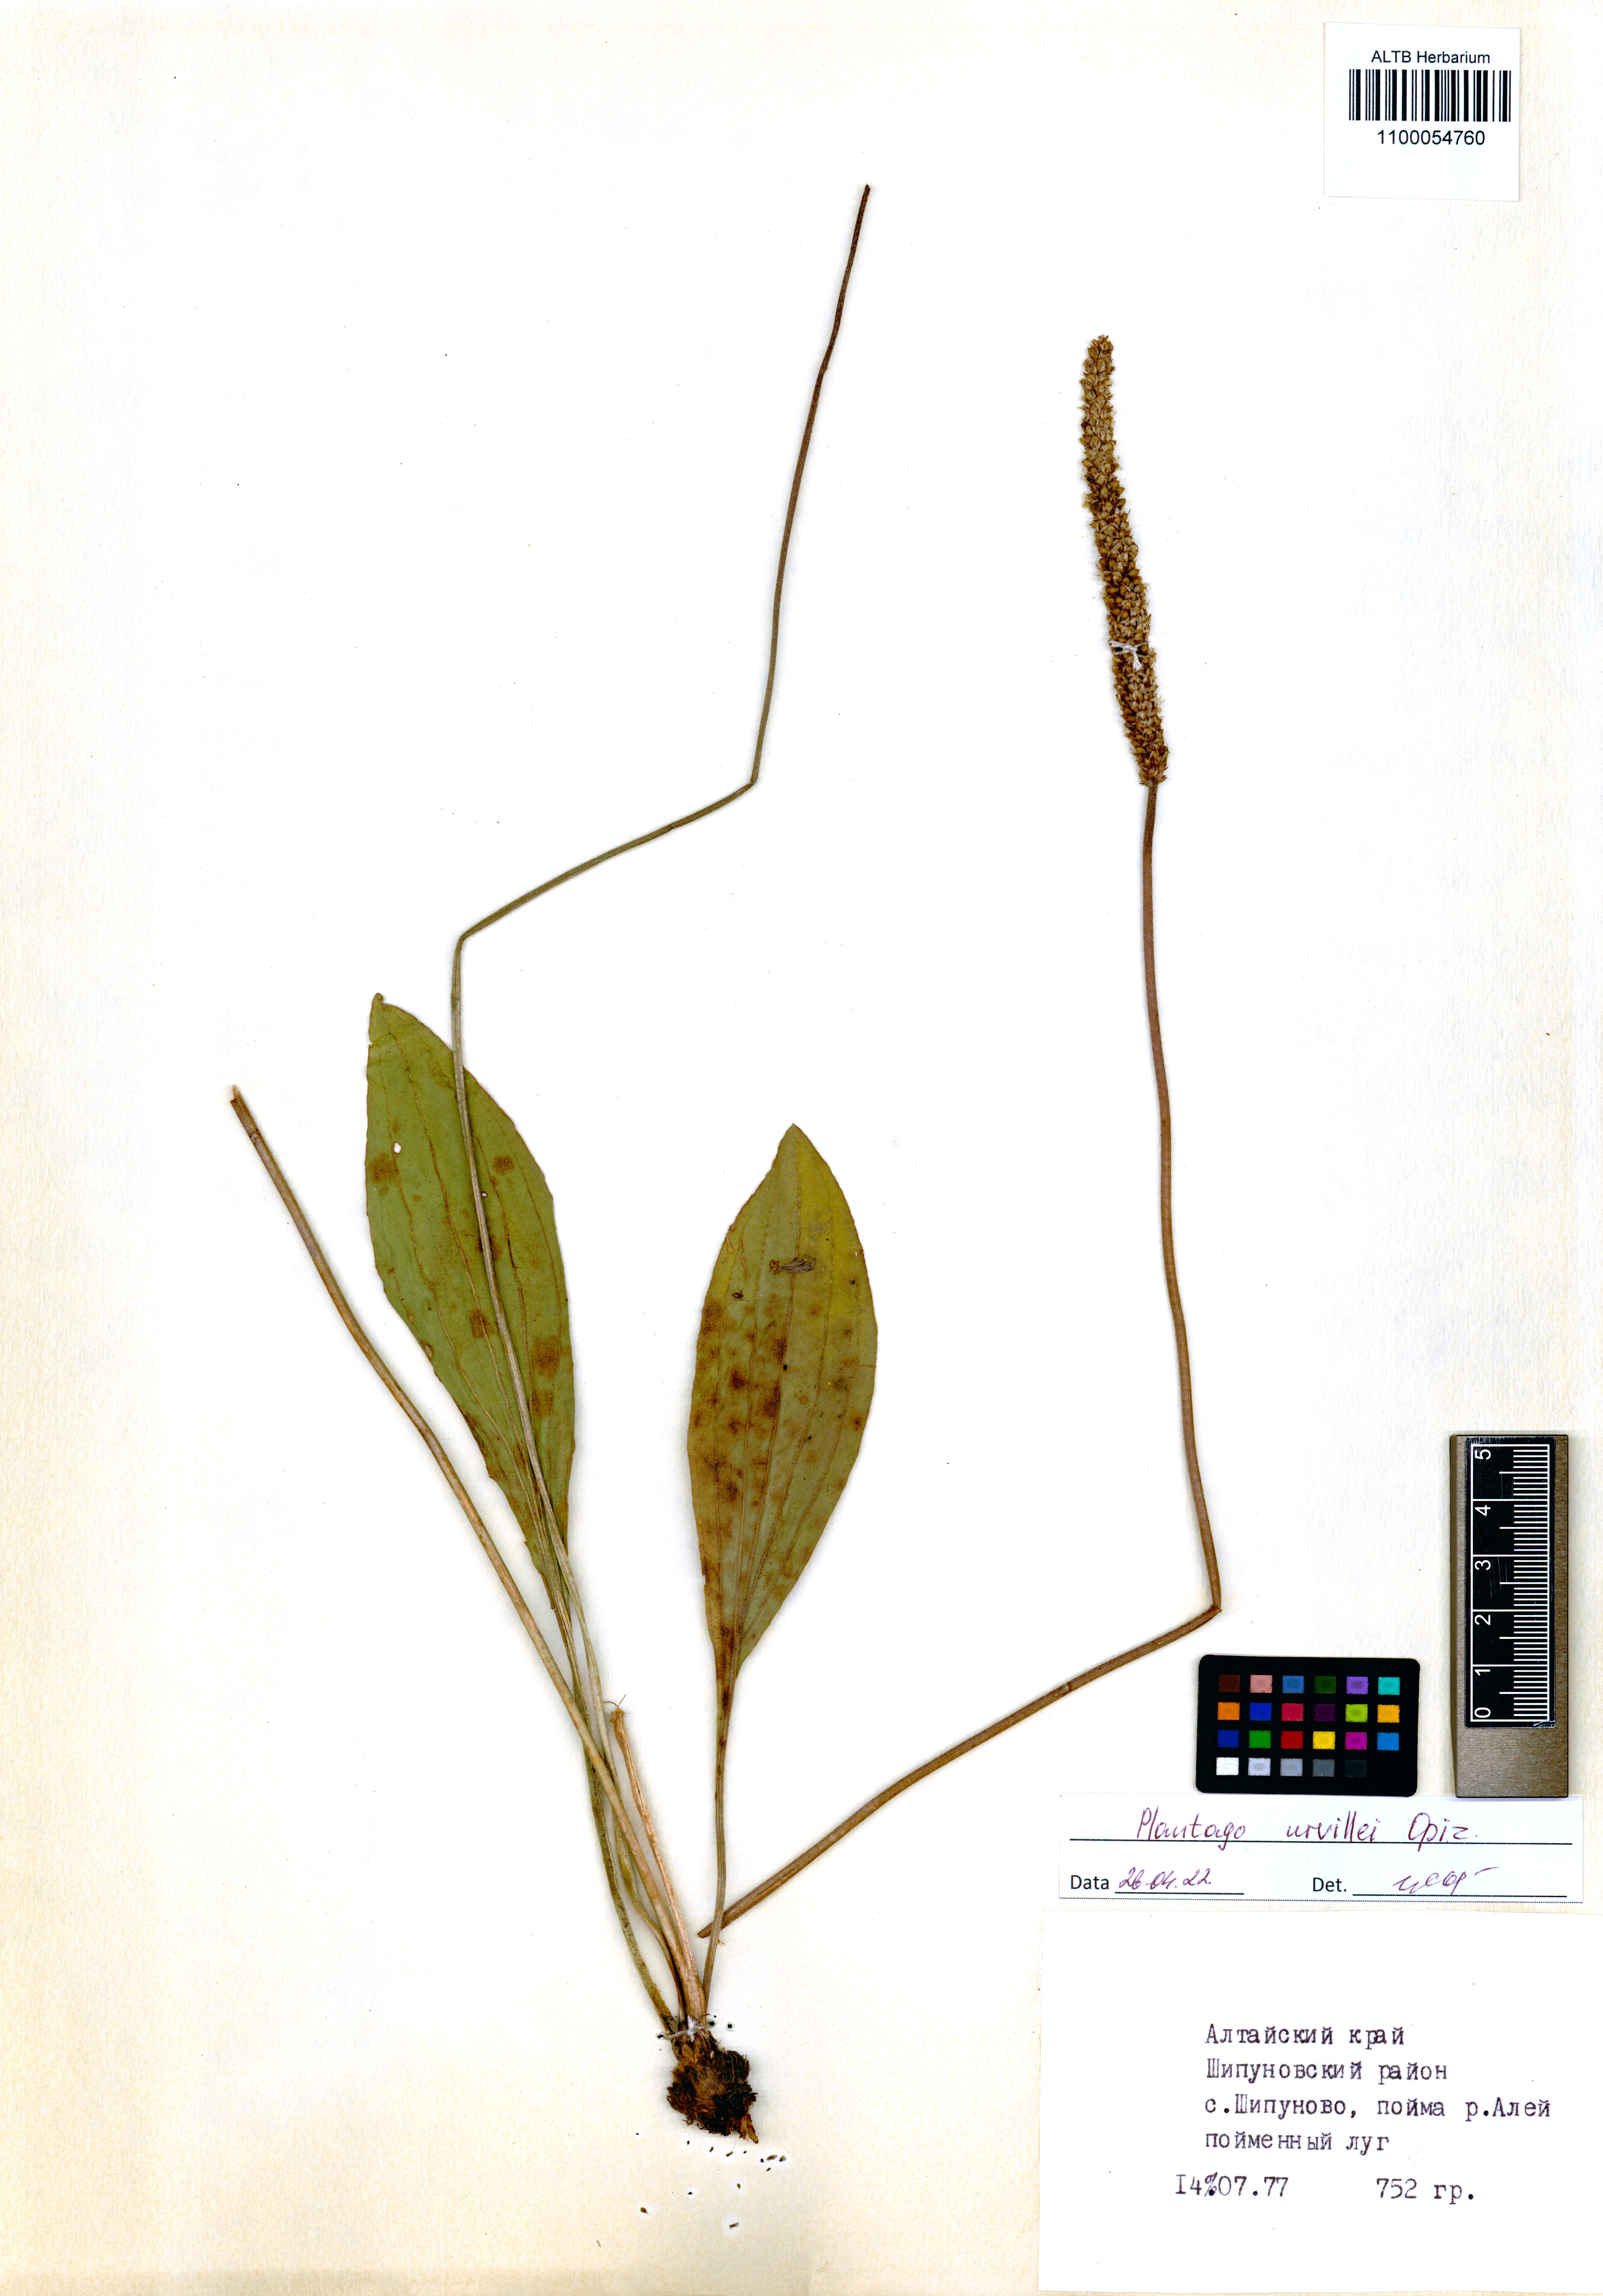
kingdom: Plantae
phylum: Tracheophyta
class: Magnoliopsida
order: Lamiales
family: Plantaginaceae
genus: Plantago
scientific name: Plantago urvillei
